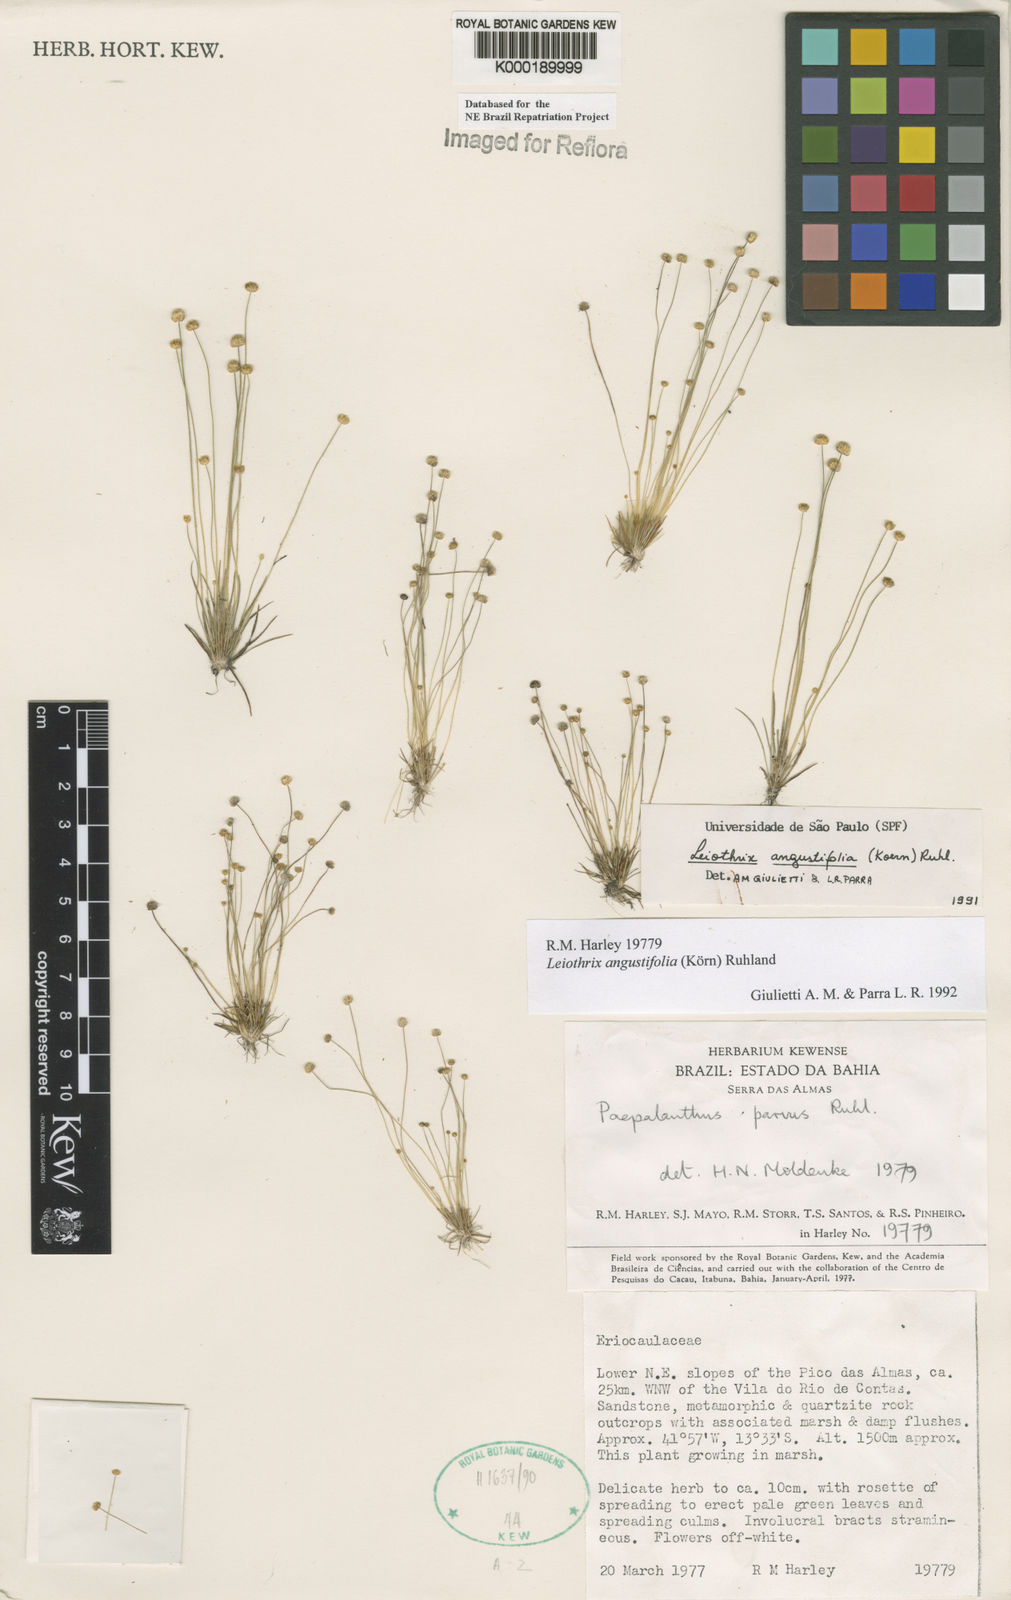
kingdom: Plantae
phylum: Tracheophyta
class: Liliopsida
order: Poales
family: Eriocaulaceae
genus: Leiothrix
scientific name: Leiothrix angustifolia
